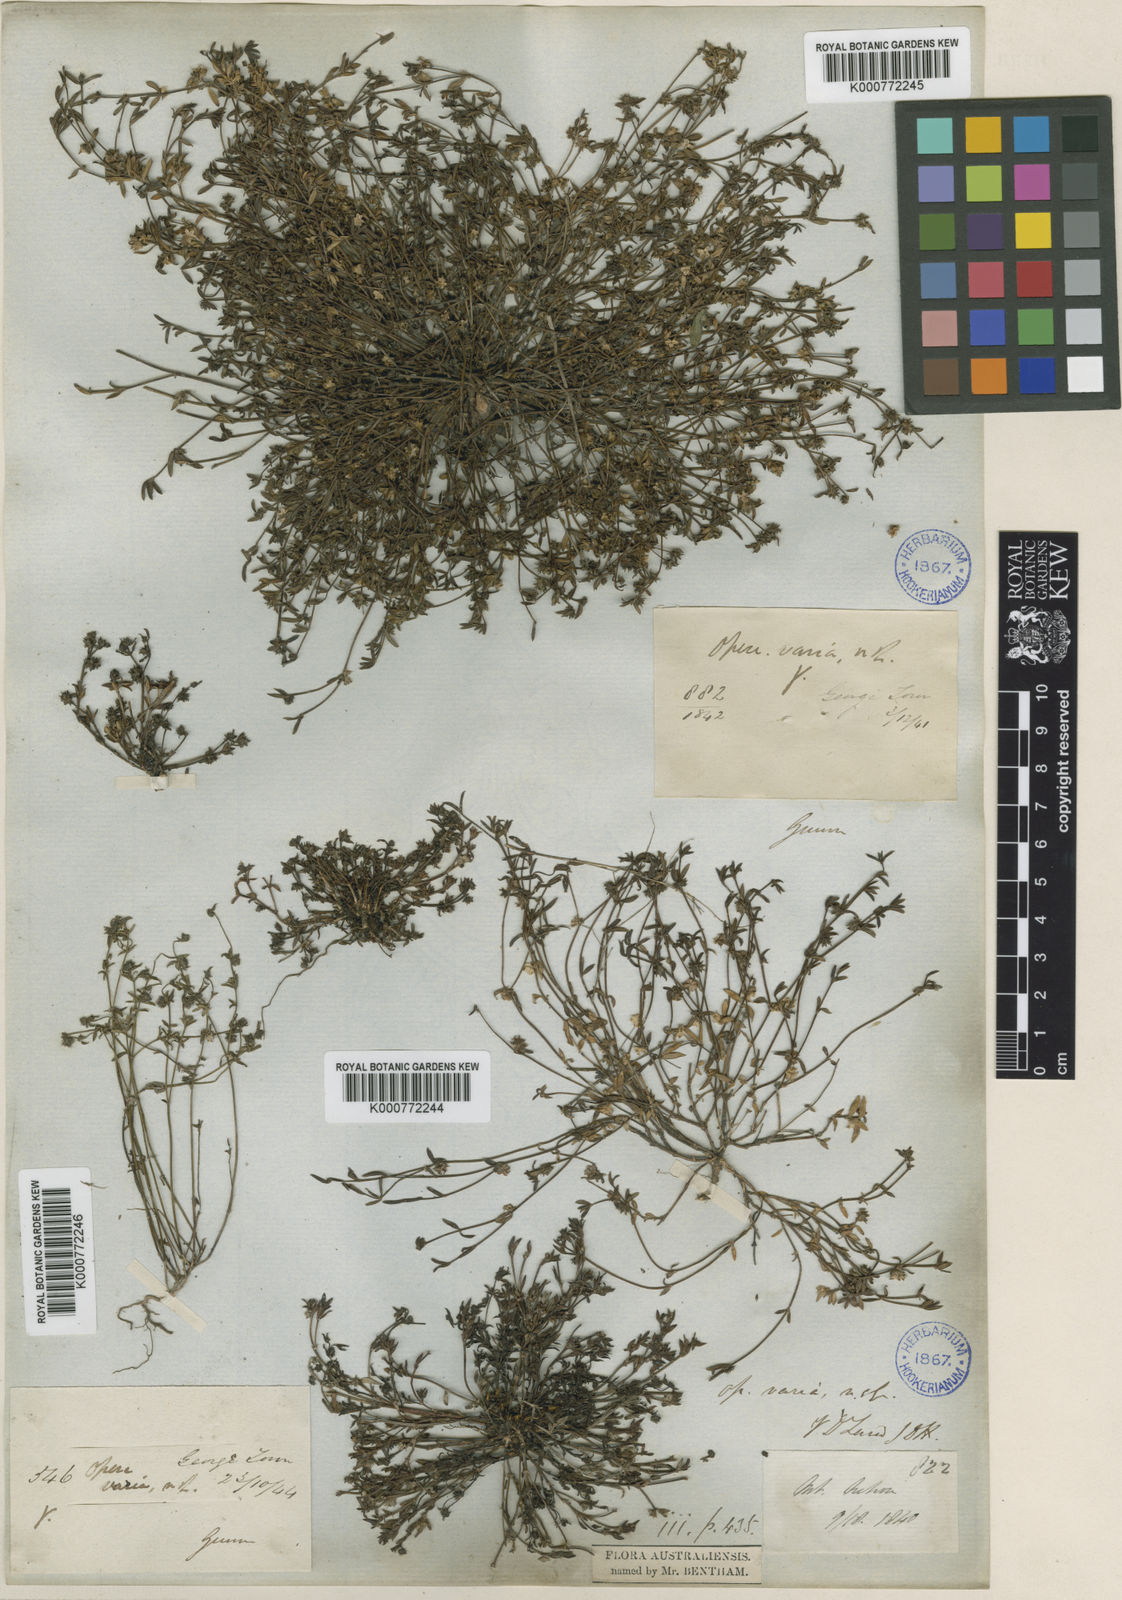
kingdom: Plantae
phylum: Tracheophyta
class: Magnoliopsida
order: Gentianales
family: Rubiaceae
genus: Opercularia
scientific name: Opercularia varia
